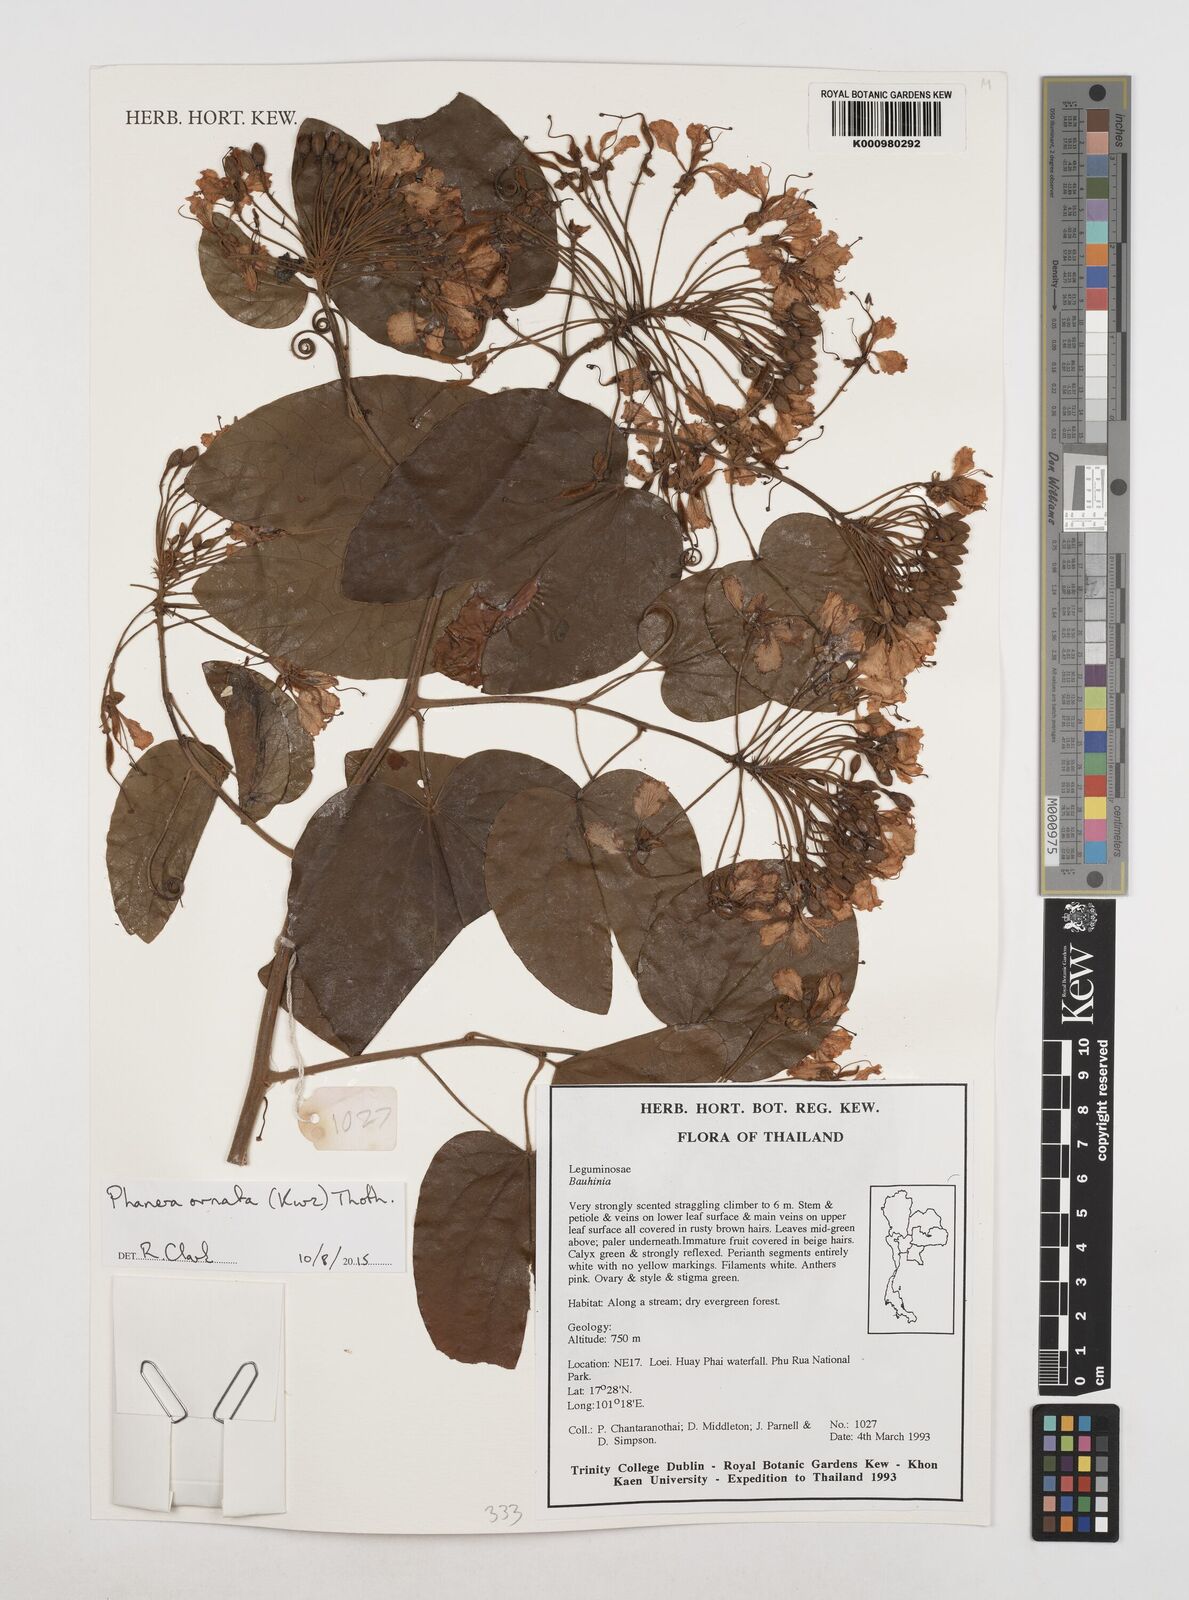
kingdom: Plantae
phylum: Tracheophyta
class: Magnoliopsida
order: Fabales
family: Fabaceae
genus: Phanera
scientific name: Phanera ornata
